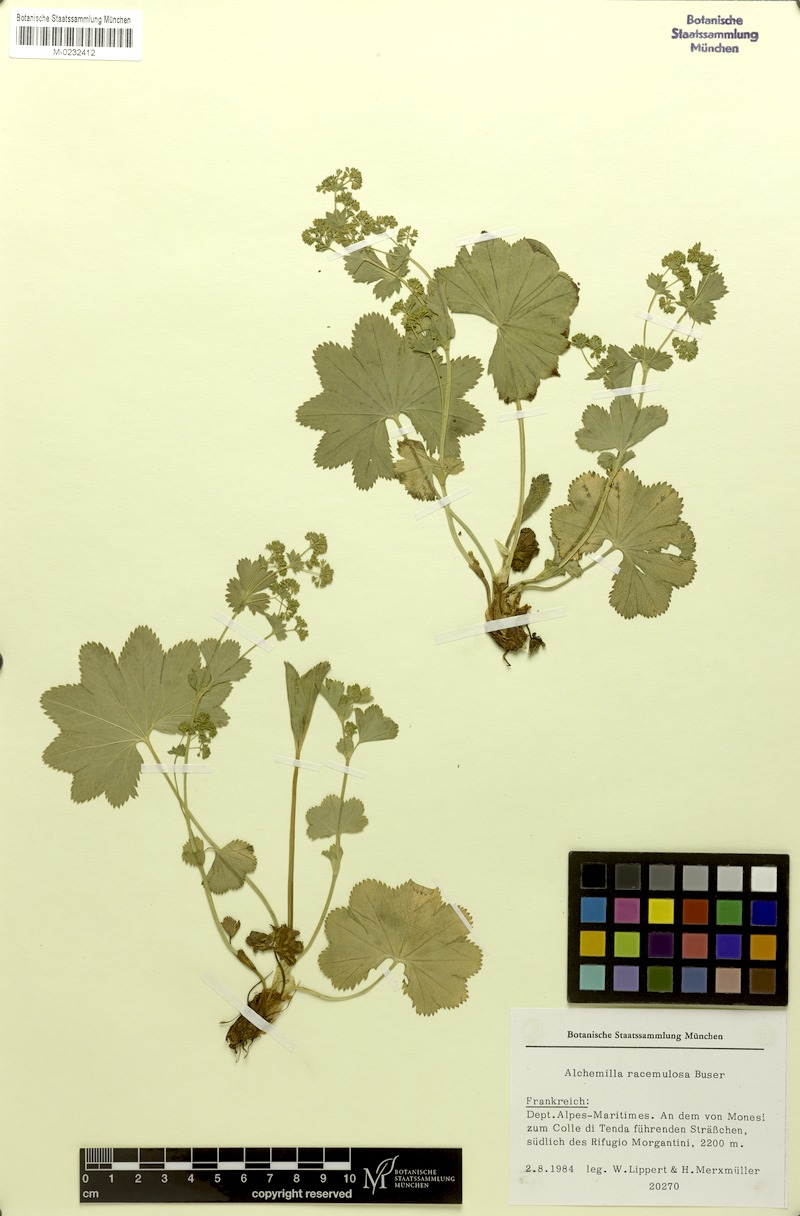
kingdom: Plantae
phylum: Tracheophyta
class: Magnoliopsida
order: Rosales
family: Rosaceae
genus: Alchemilla
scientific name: Alchemilla racemulosa
